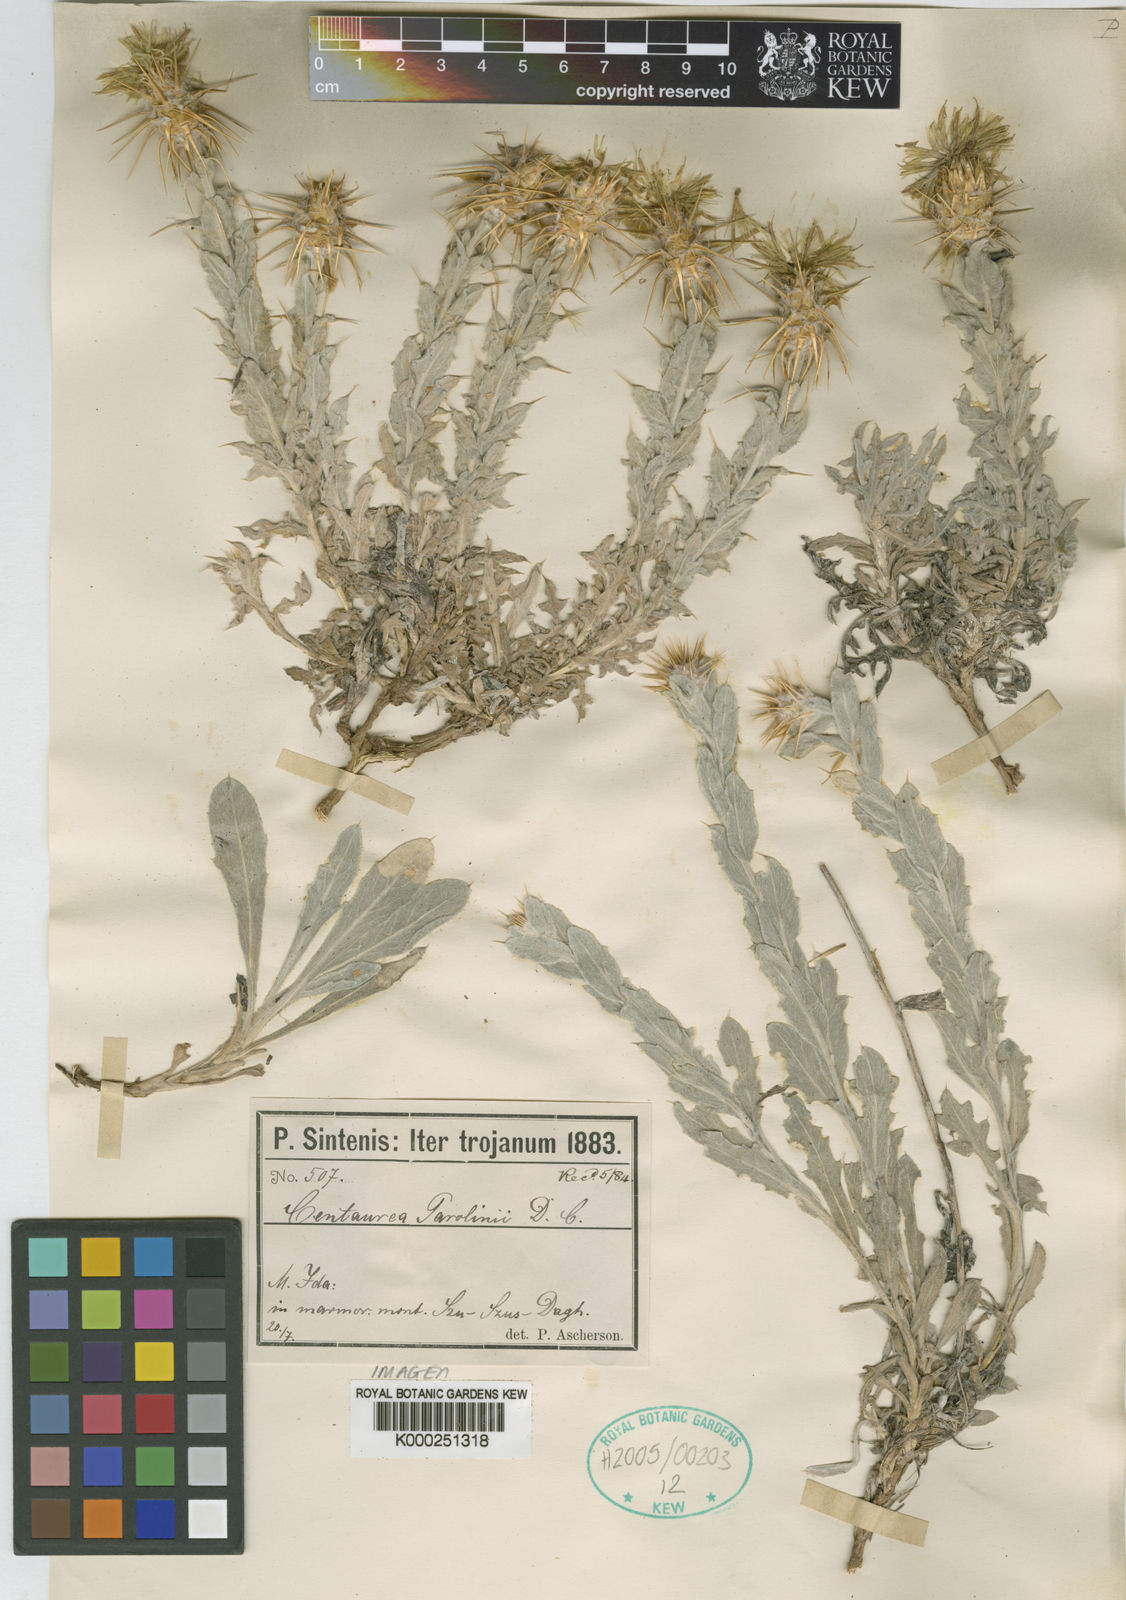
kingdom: Plantae
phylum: Tracheophyta
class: Magnoliopsida
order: Asterales
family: Asteraceae
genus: Centaurea
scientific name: Centaurea odyssei
